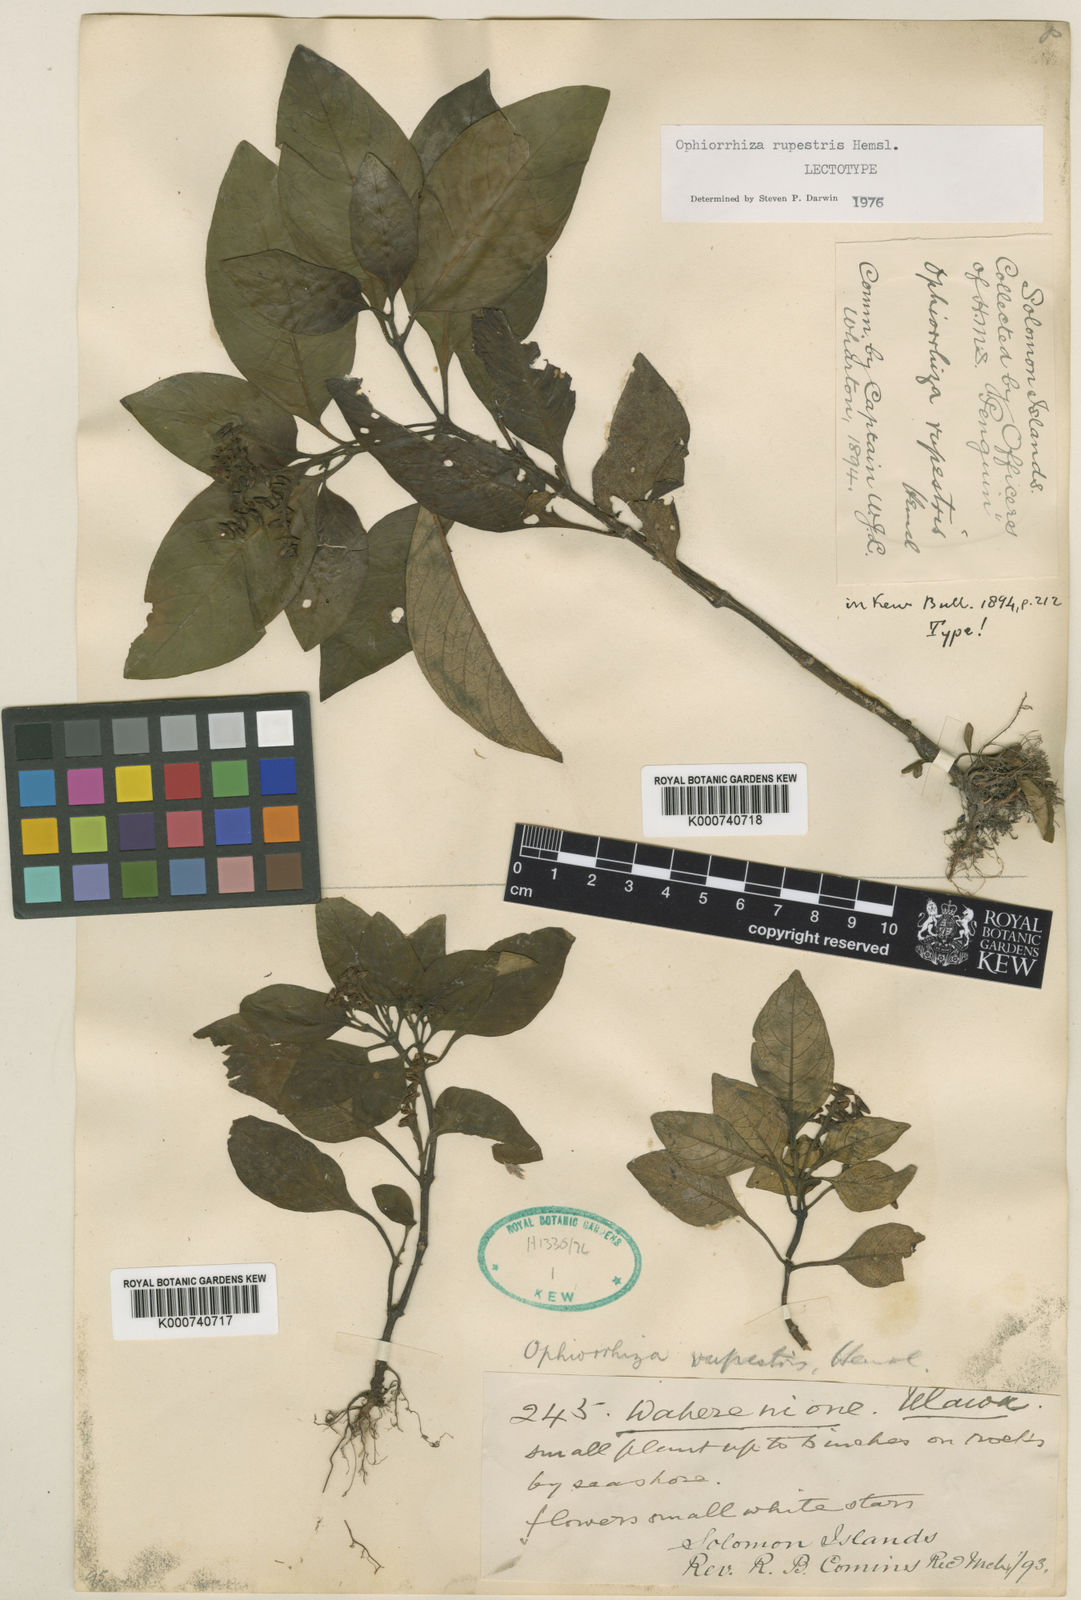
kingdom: Plantae
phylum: Tracheophyta
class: Magnoliopsida
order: Gentianales
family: Rubiaceae
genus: Ophiorrhiza
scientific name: Ophiorrhiza rupestris
